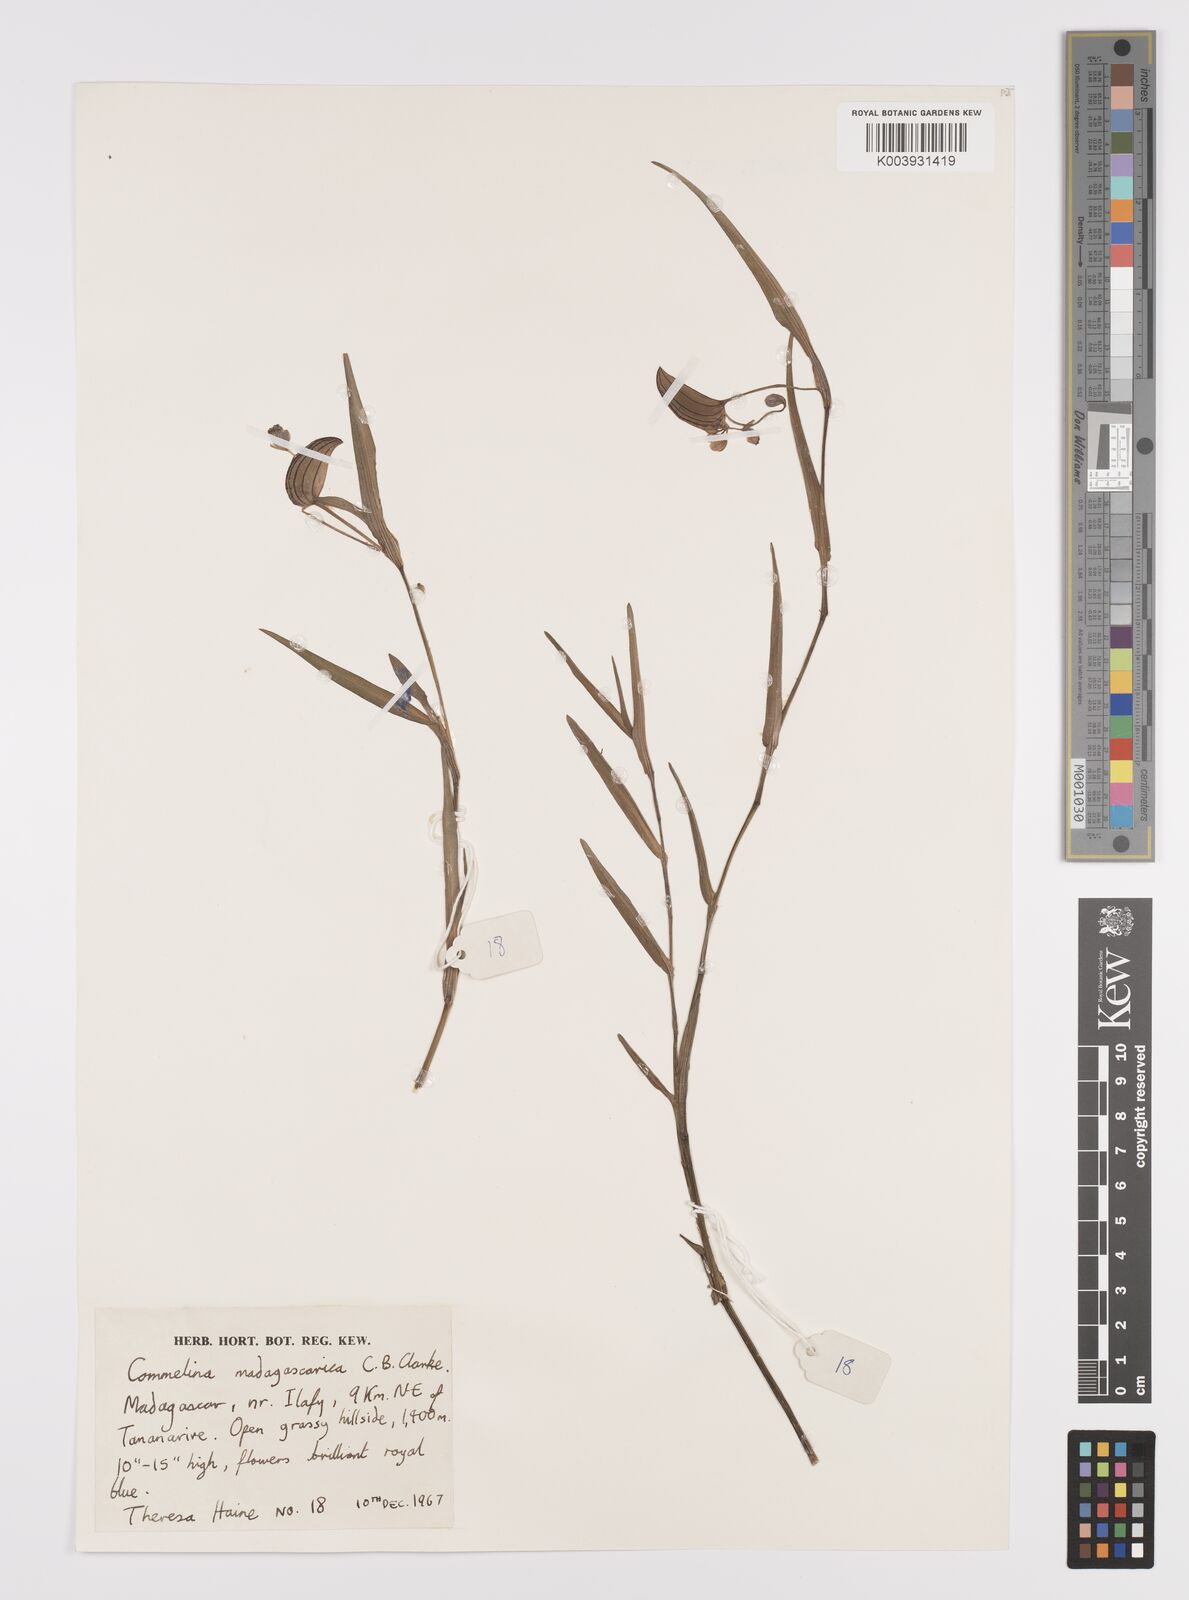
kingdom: Plantae
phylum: Tracheophyta
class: Liliopsida
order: Commelinales
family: Commelinaceae
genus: Commelina
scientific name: Commelina madagascarica
